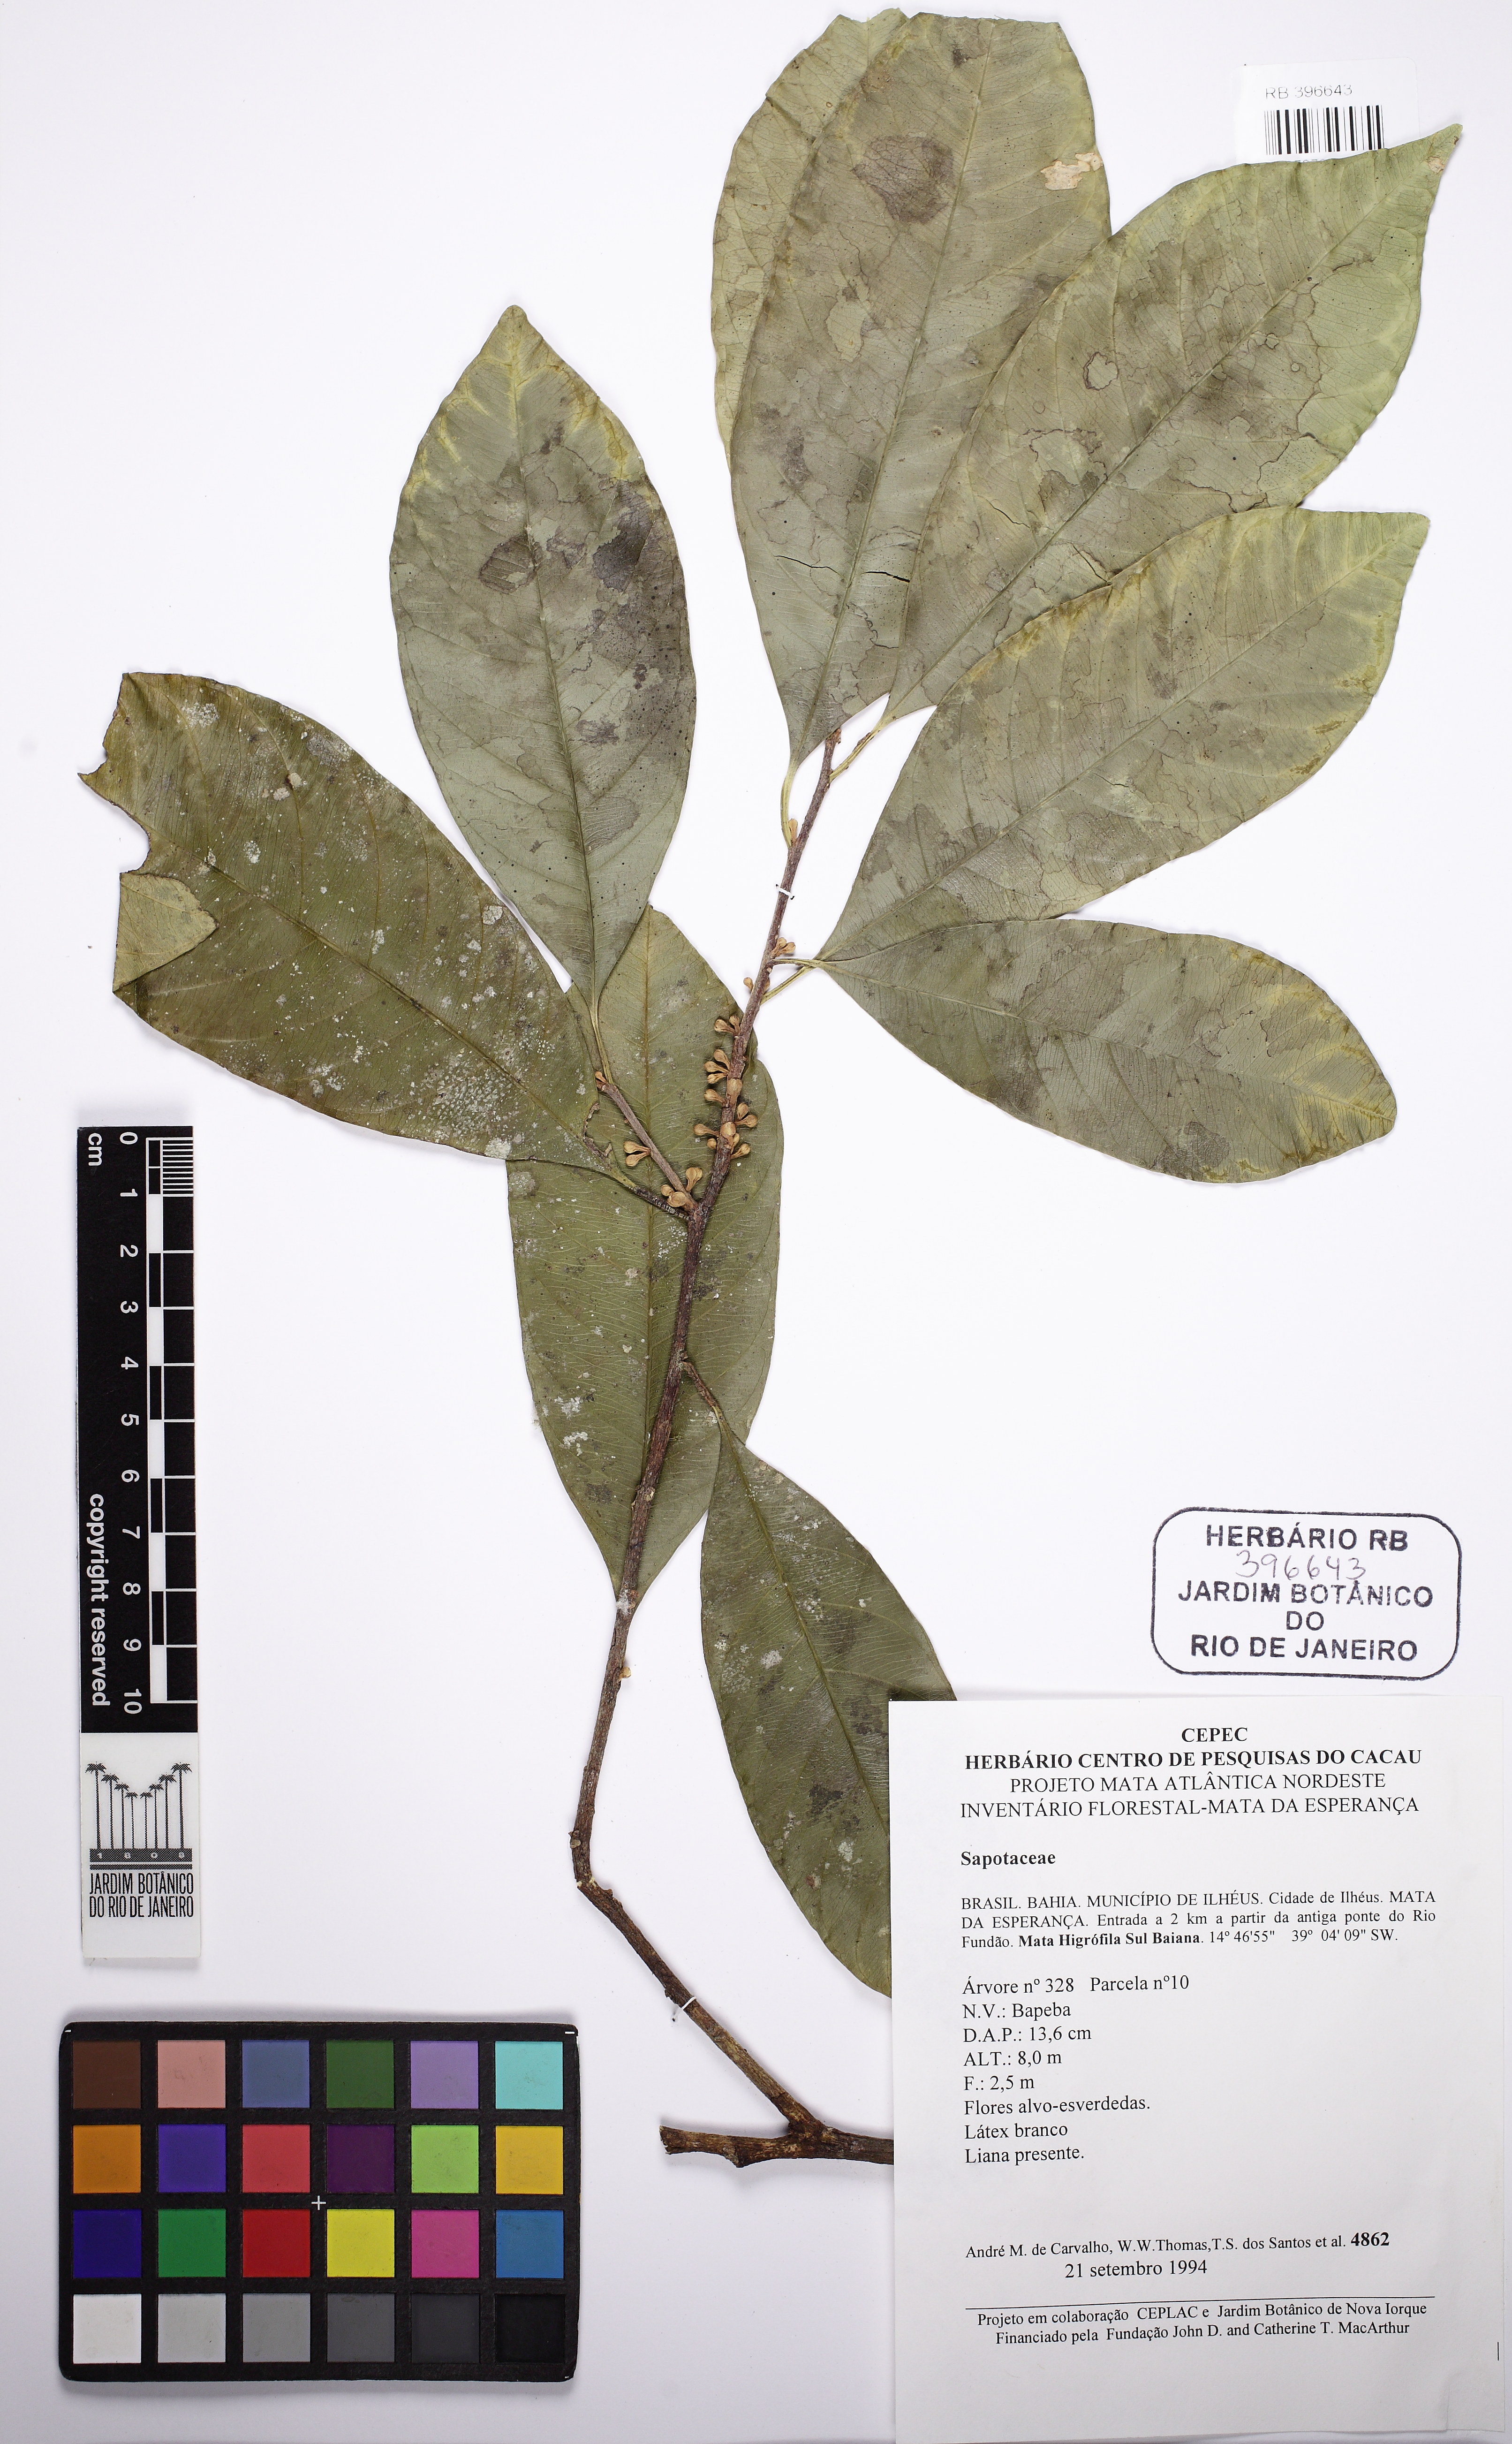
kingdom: Plantae
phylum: Tracheophyta
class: Magnoliopsida
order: Ericales
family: Sapotaceae
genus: Chrysophyllum
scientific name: Chrysophyllum gonocarpum
